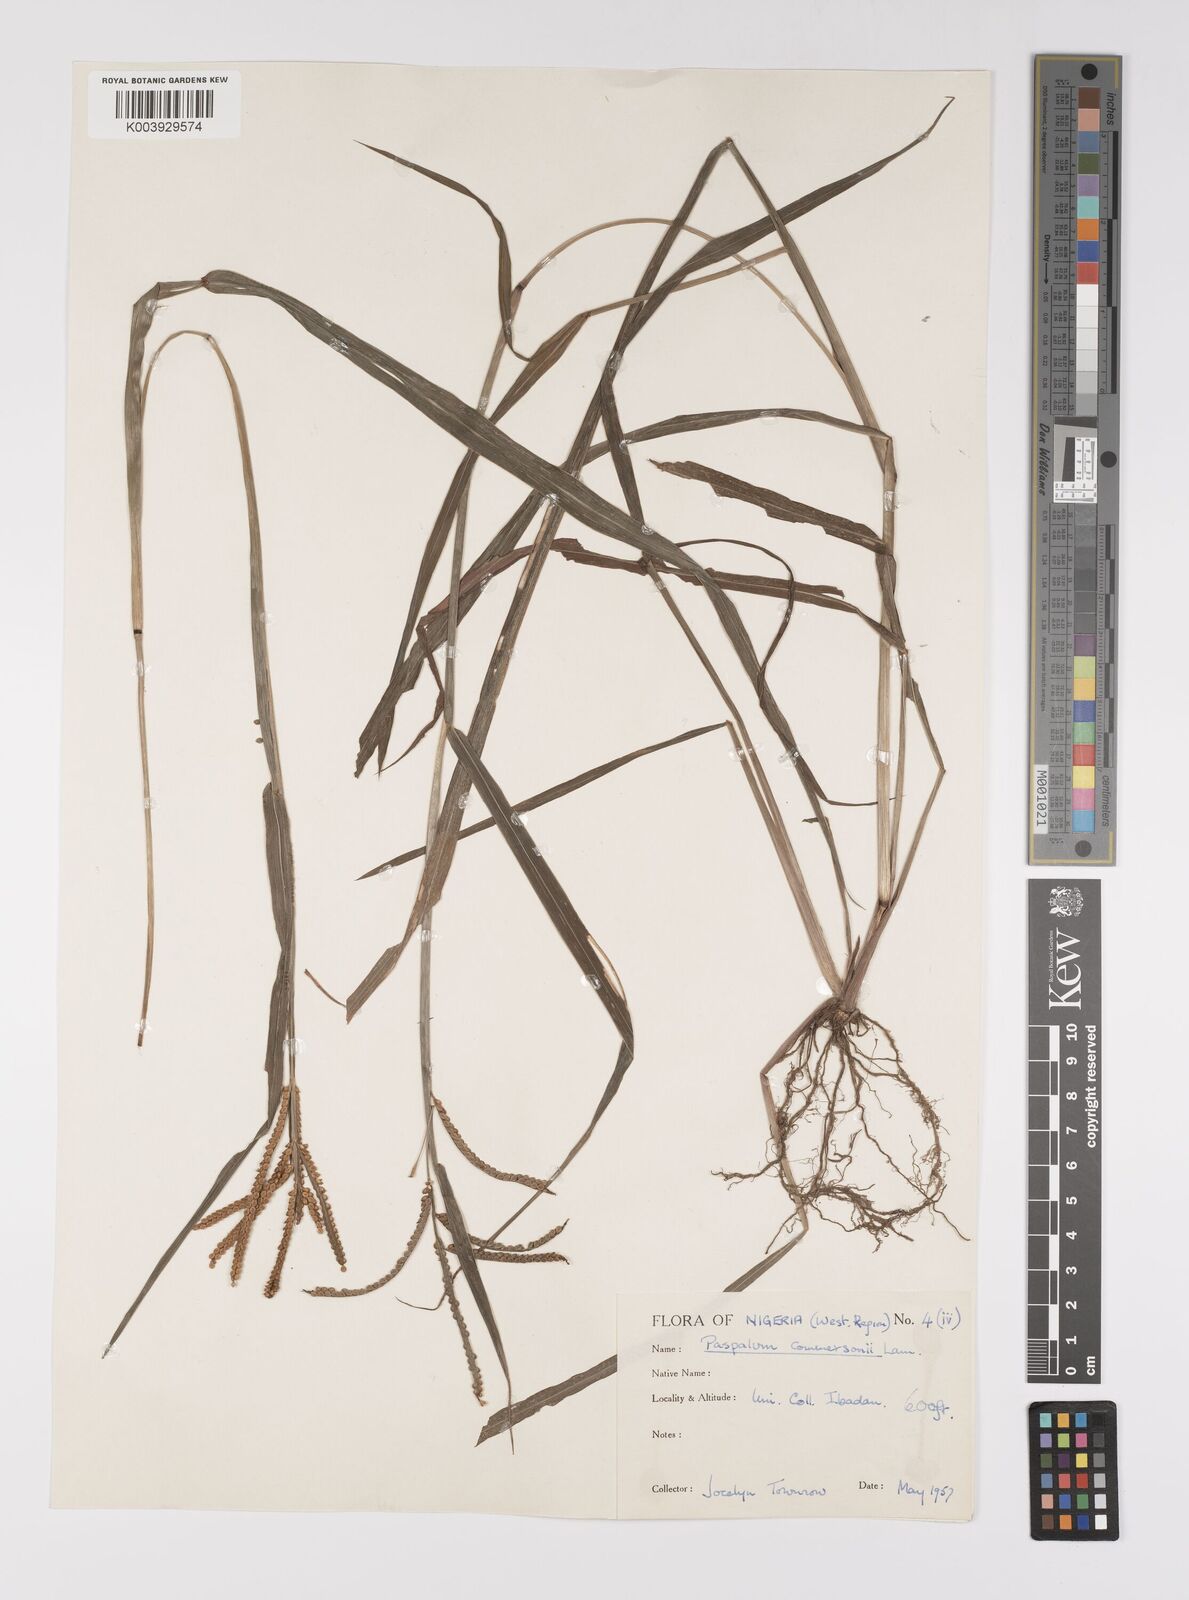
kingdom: Plantae
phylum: Tracheophyta
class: Liliopsida
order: Poales
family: Poaceae
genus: Paspalum
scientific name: Paspalum scrobiculatum
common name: Kodo millet
